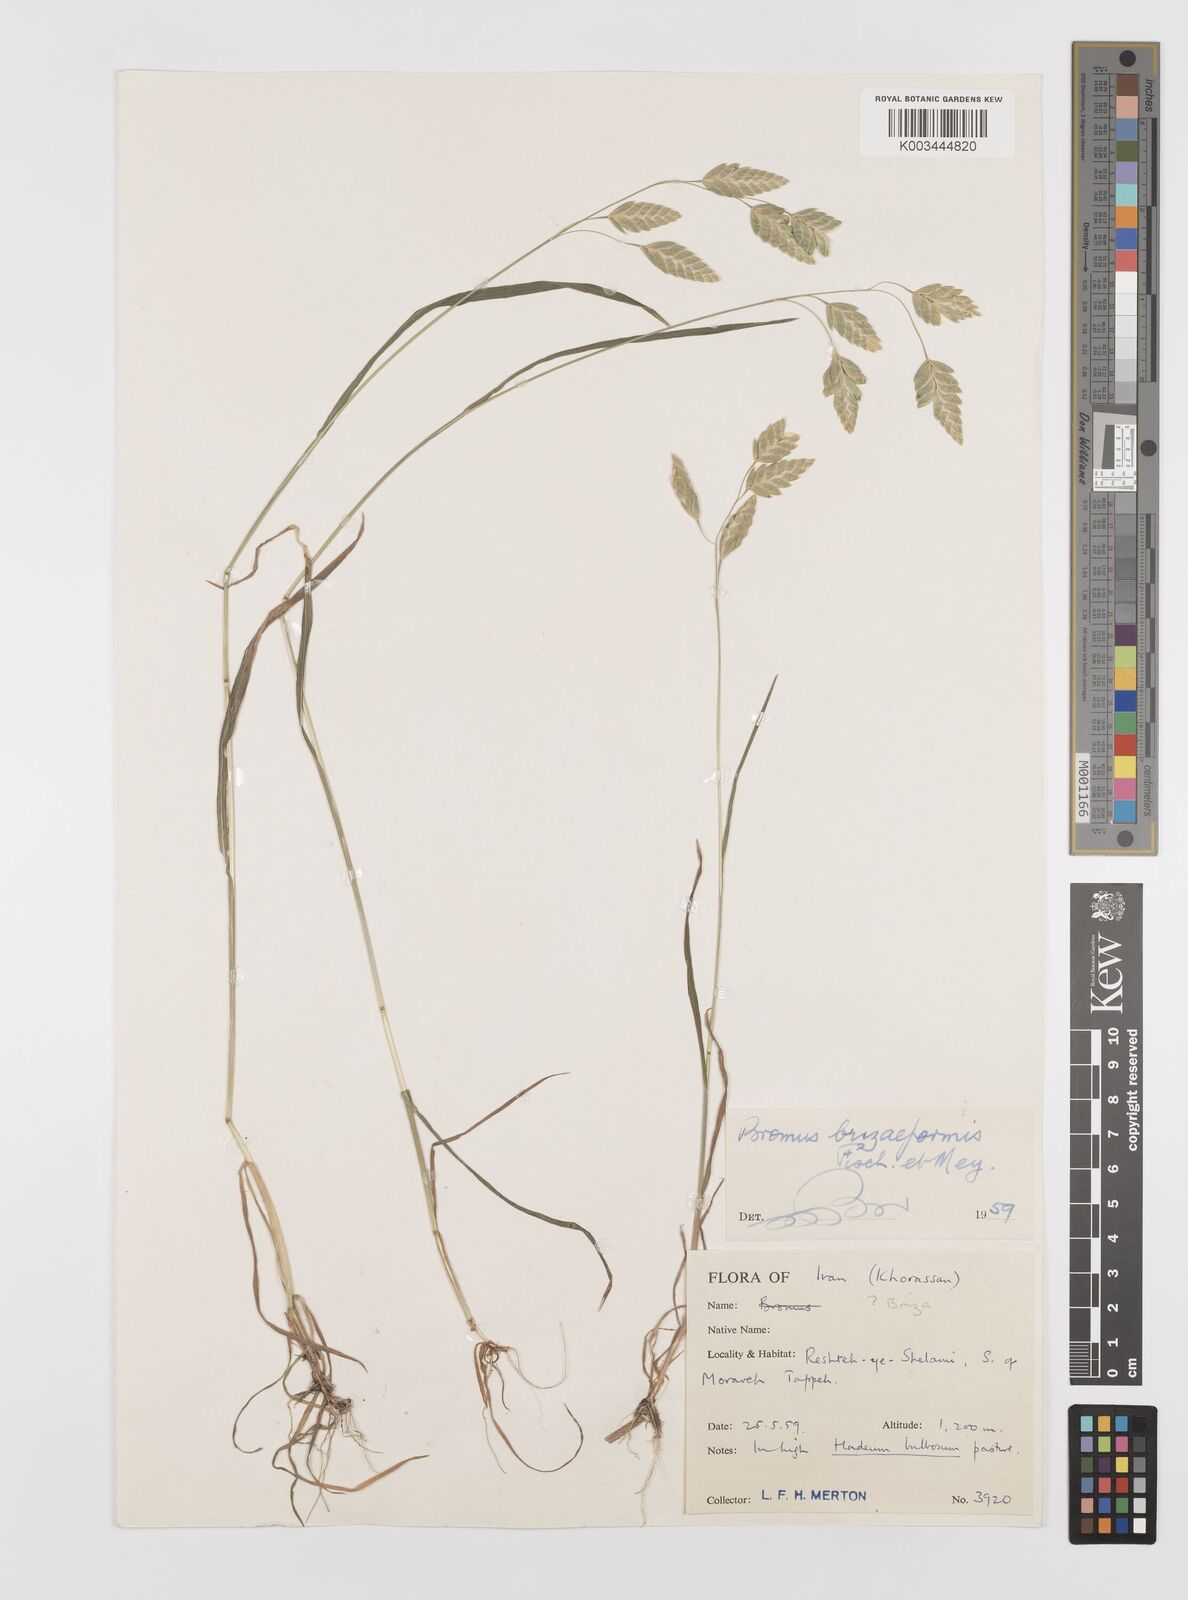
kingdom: Plantae
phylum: Tracheophyta
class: Liliopsida
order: Poales
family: Poaceae
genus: Bromus
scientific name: Bromus briziformis
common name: Rattlesnake brome
